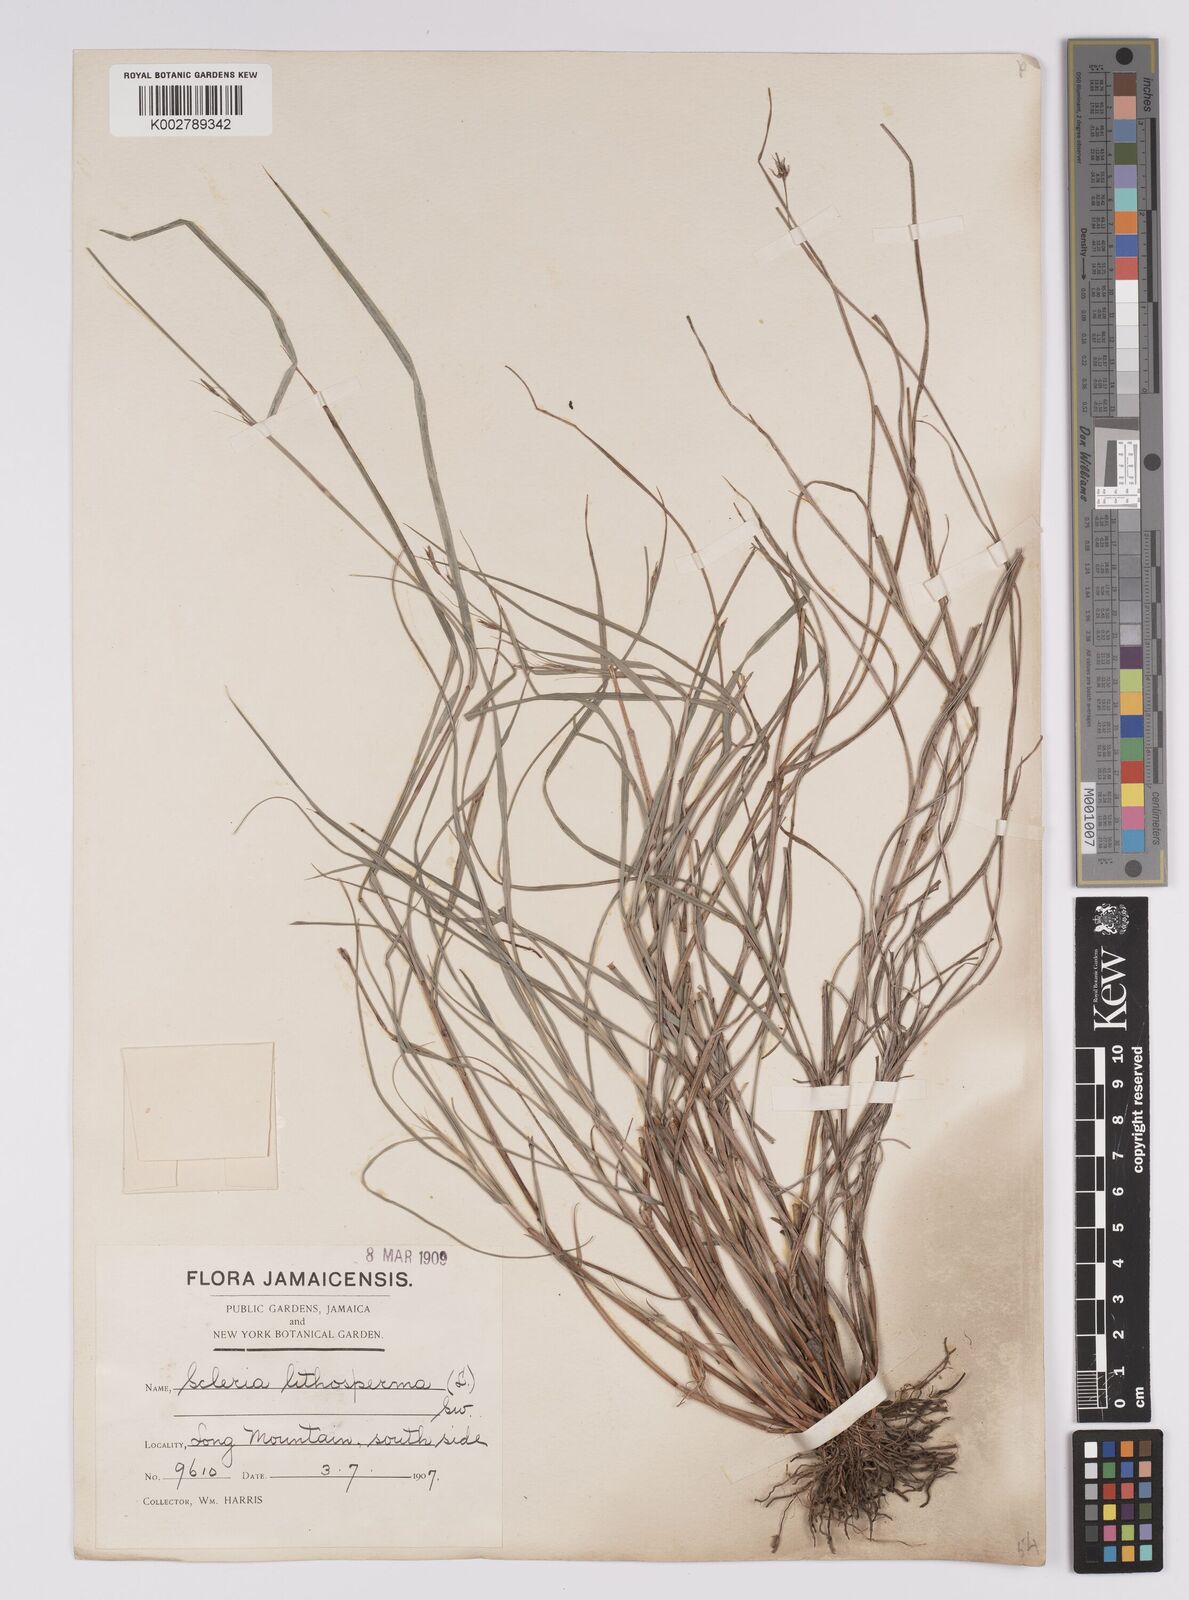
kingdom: Plantae
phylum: Tracheophyta
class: Liliopsida
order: Poales
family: Cyperaceae
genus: Scleria
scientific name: Scleria lithosperma
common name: Florida keys nut-rush
